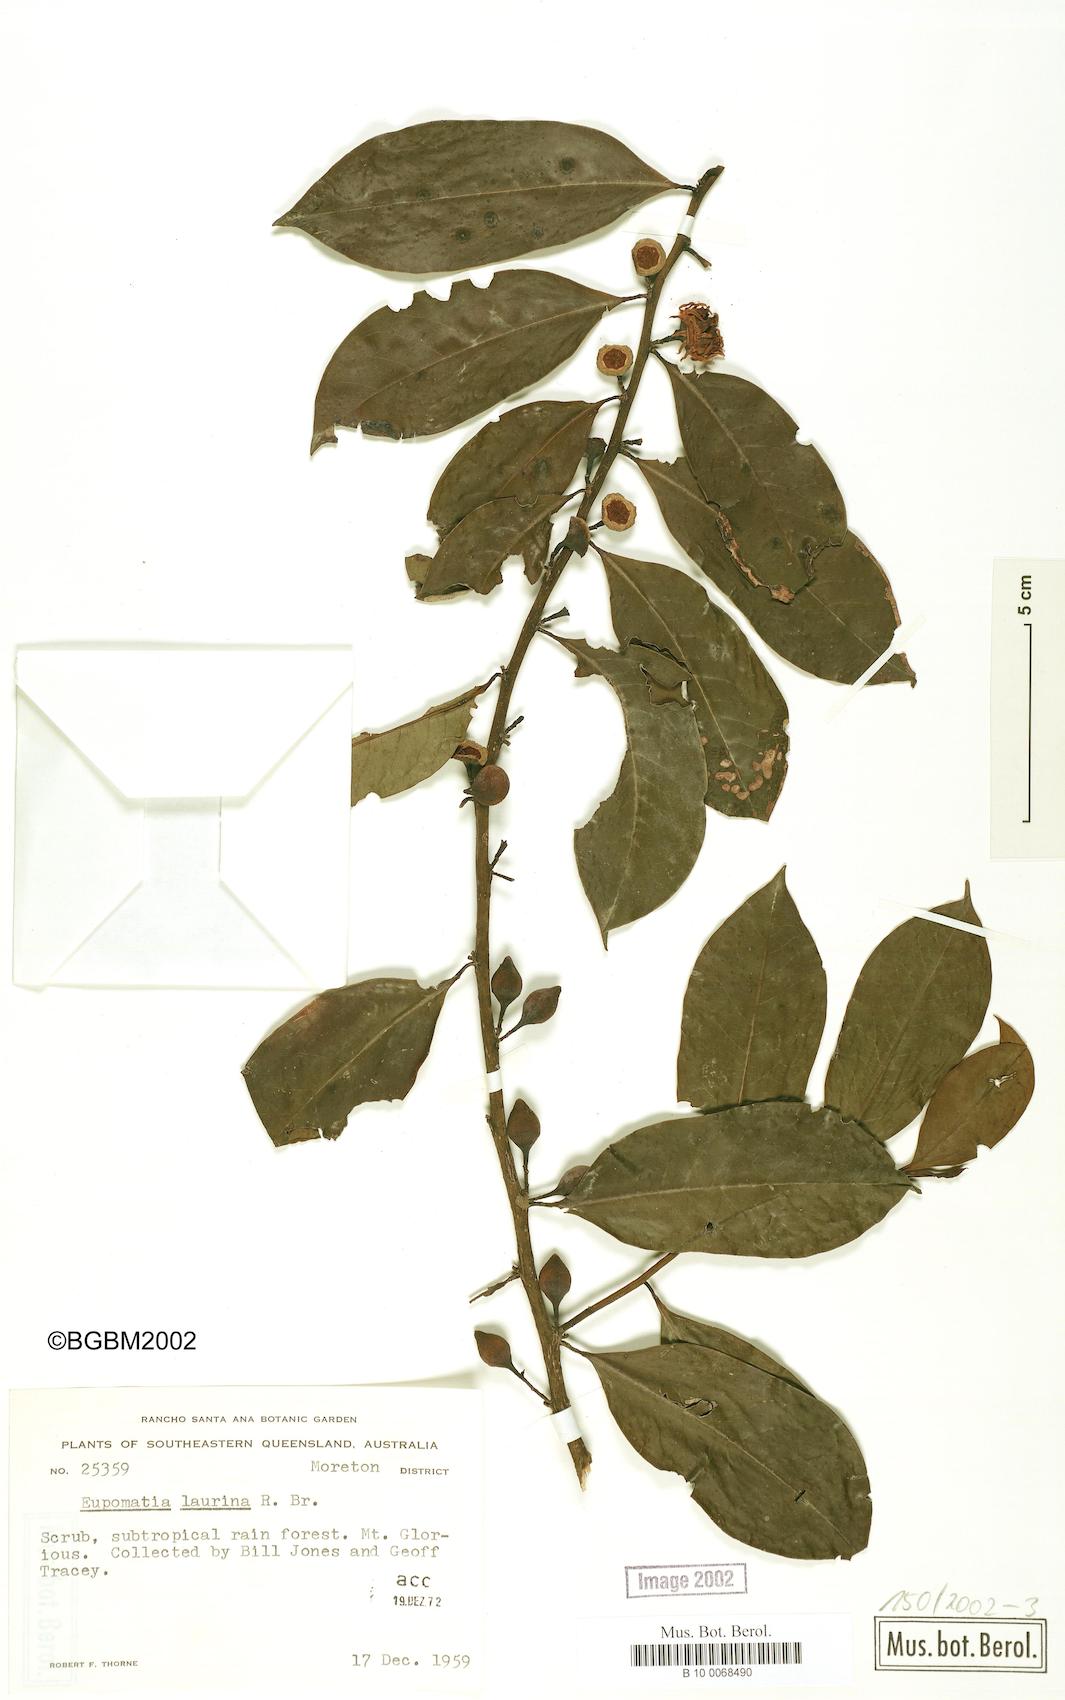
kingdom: Plantae
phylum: Tracheophyta
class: Magnoliopsida
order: Magnoliales
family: Eupomatiaceae
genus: Eupomatia
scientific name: Eupomatia laurina
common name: Bolwarra
